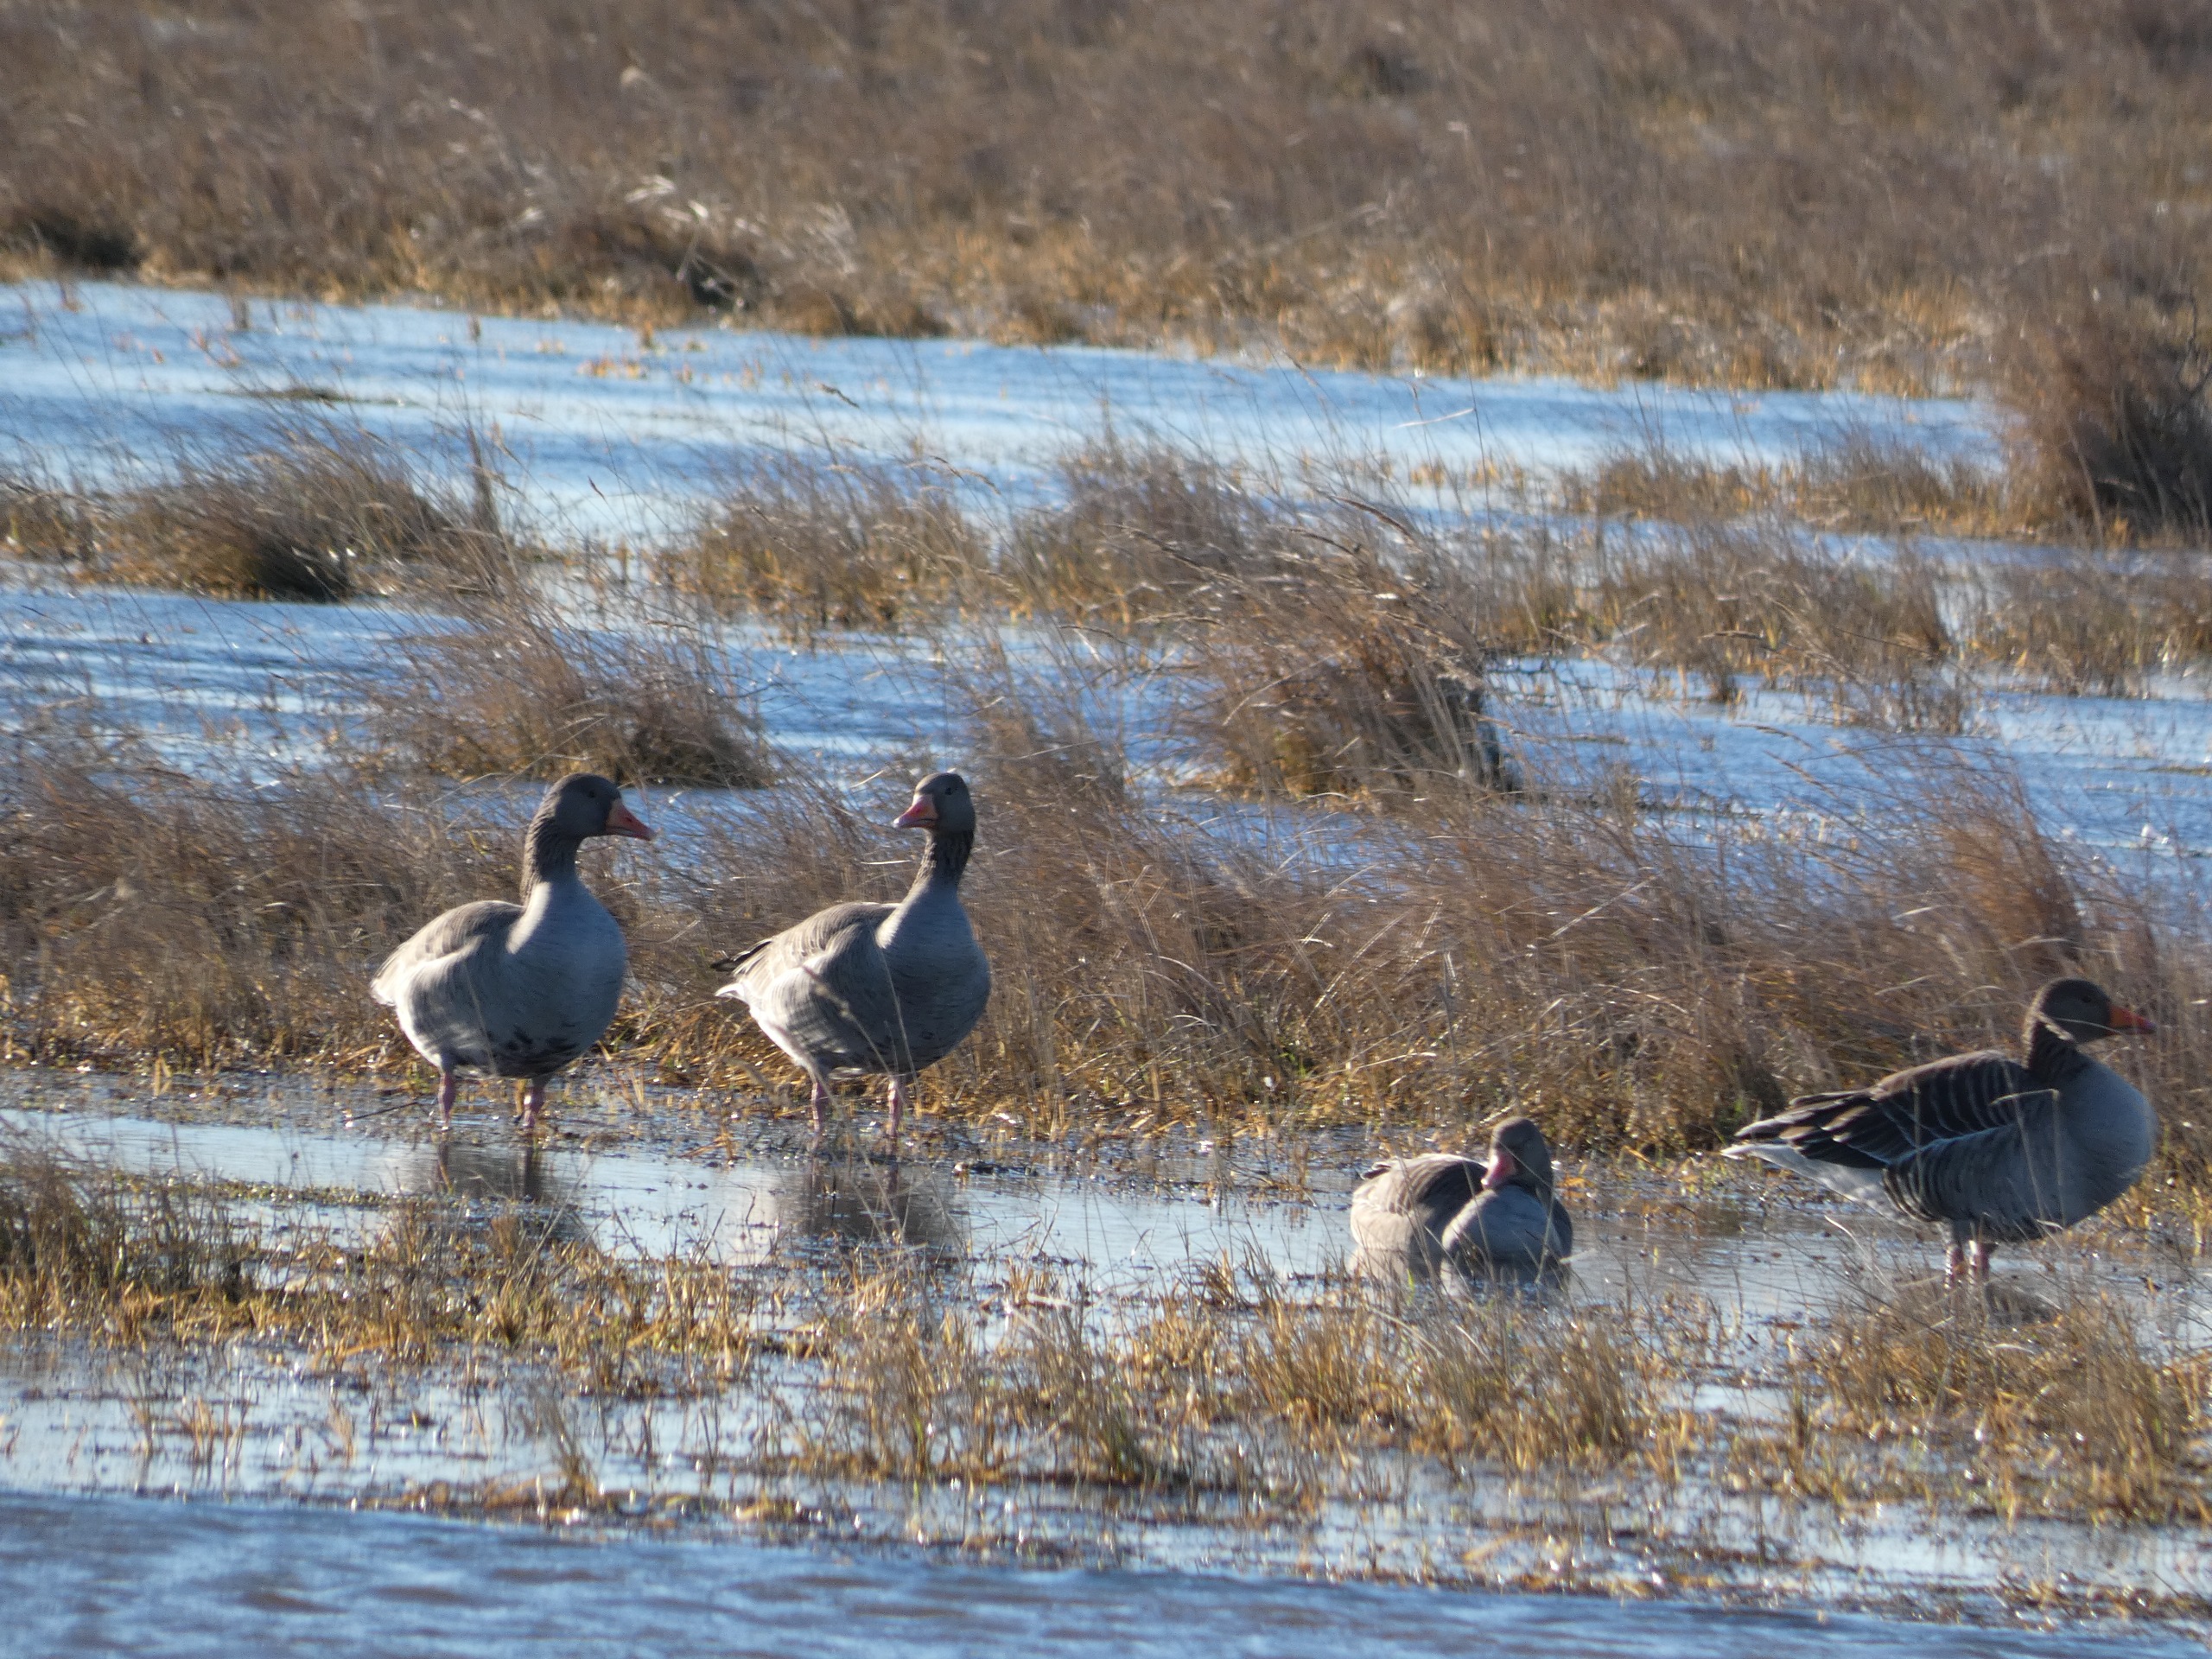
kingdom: Animalia
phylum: Chordata
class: Aves
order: Anseriformes
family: Anatidae
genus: Anser
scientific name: Anser anser
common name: Grågås
